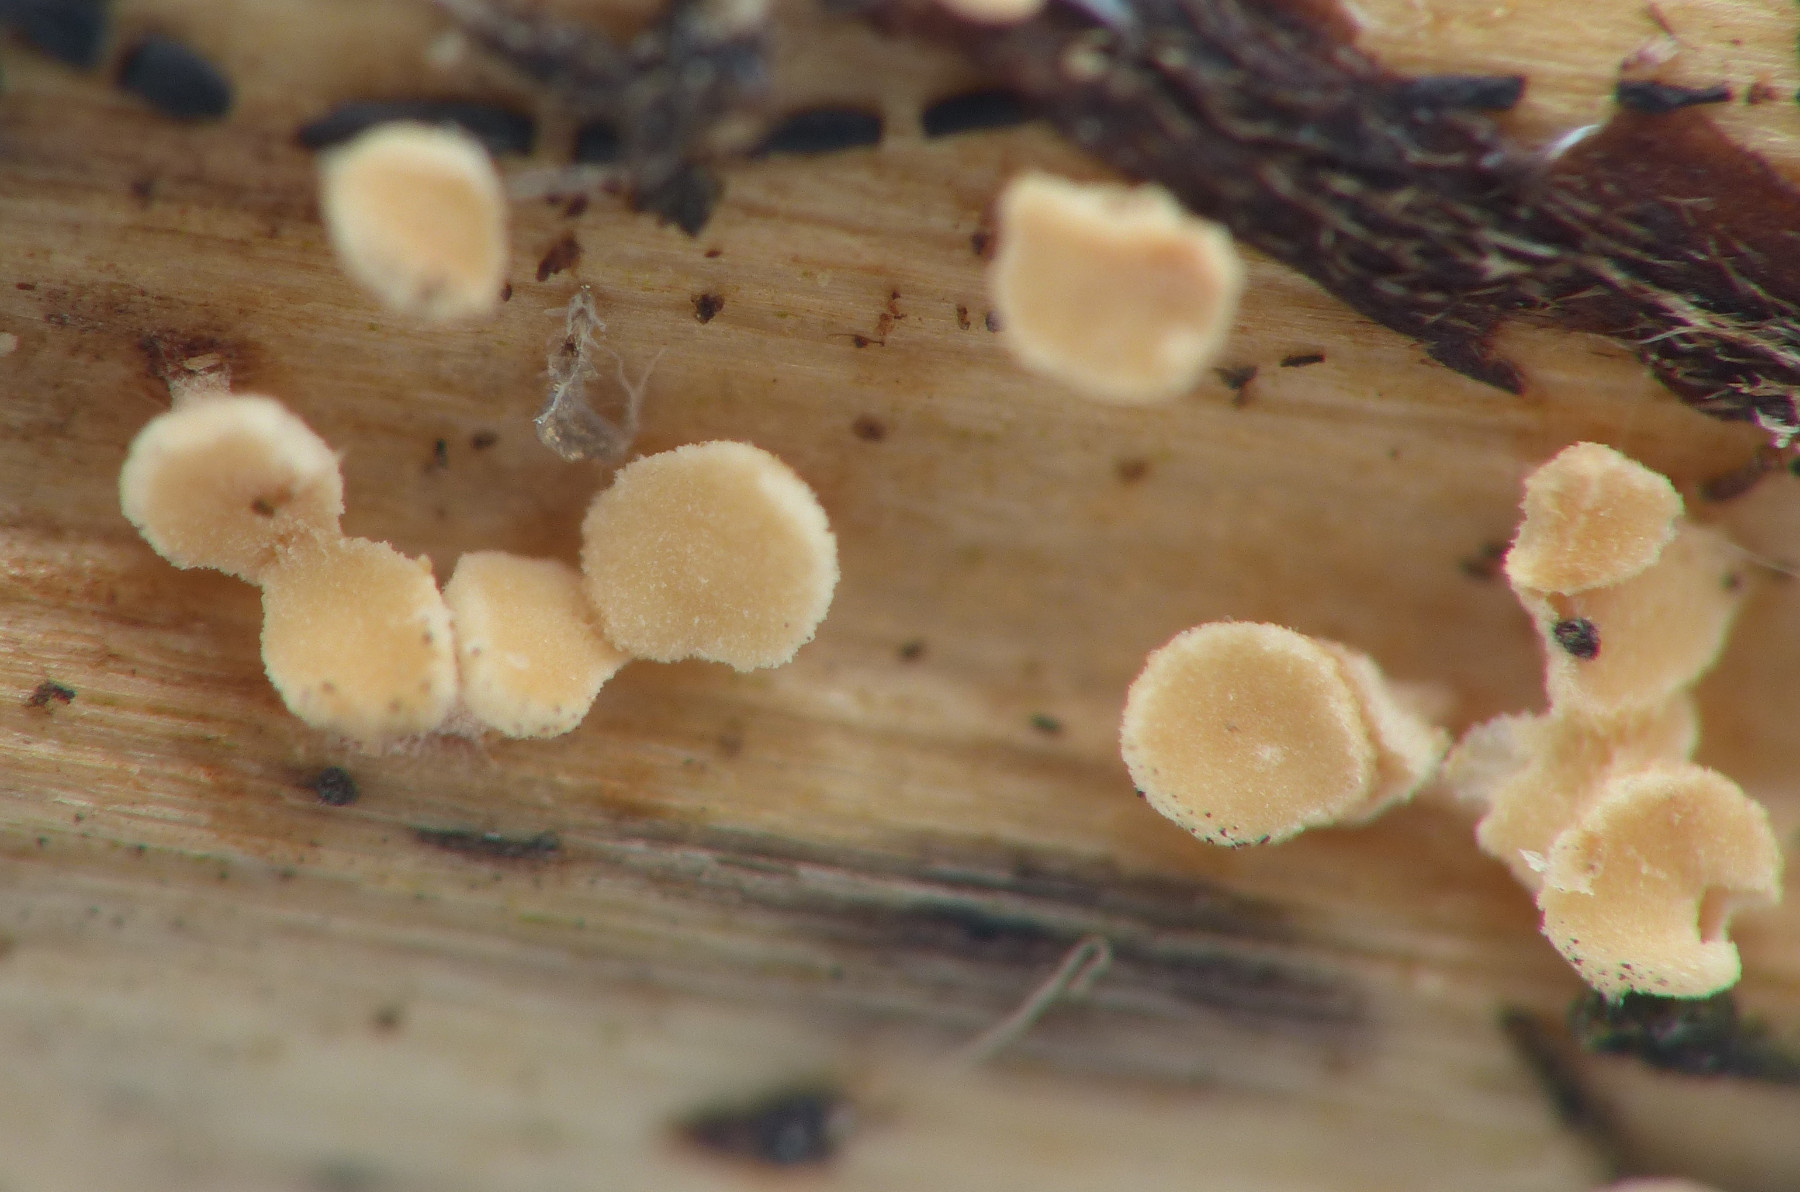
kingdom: Fungi
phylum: Ascomycota
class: Leotiomycetes
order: Helotiales
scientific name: Helotiales
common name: stilkskiveordenen
